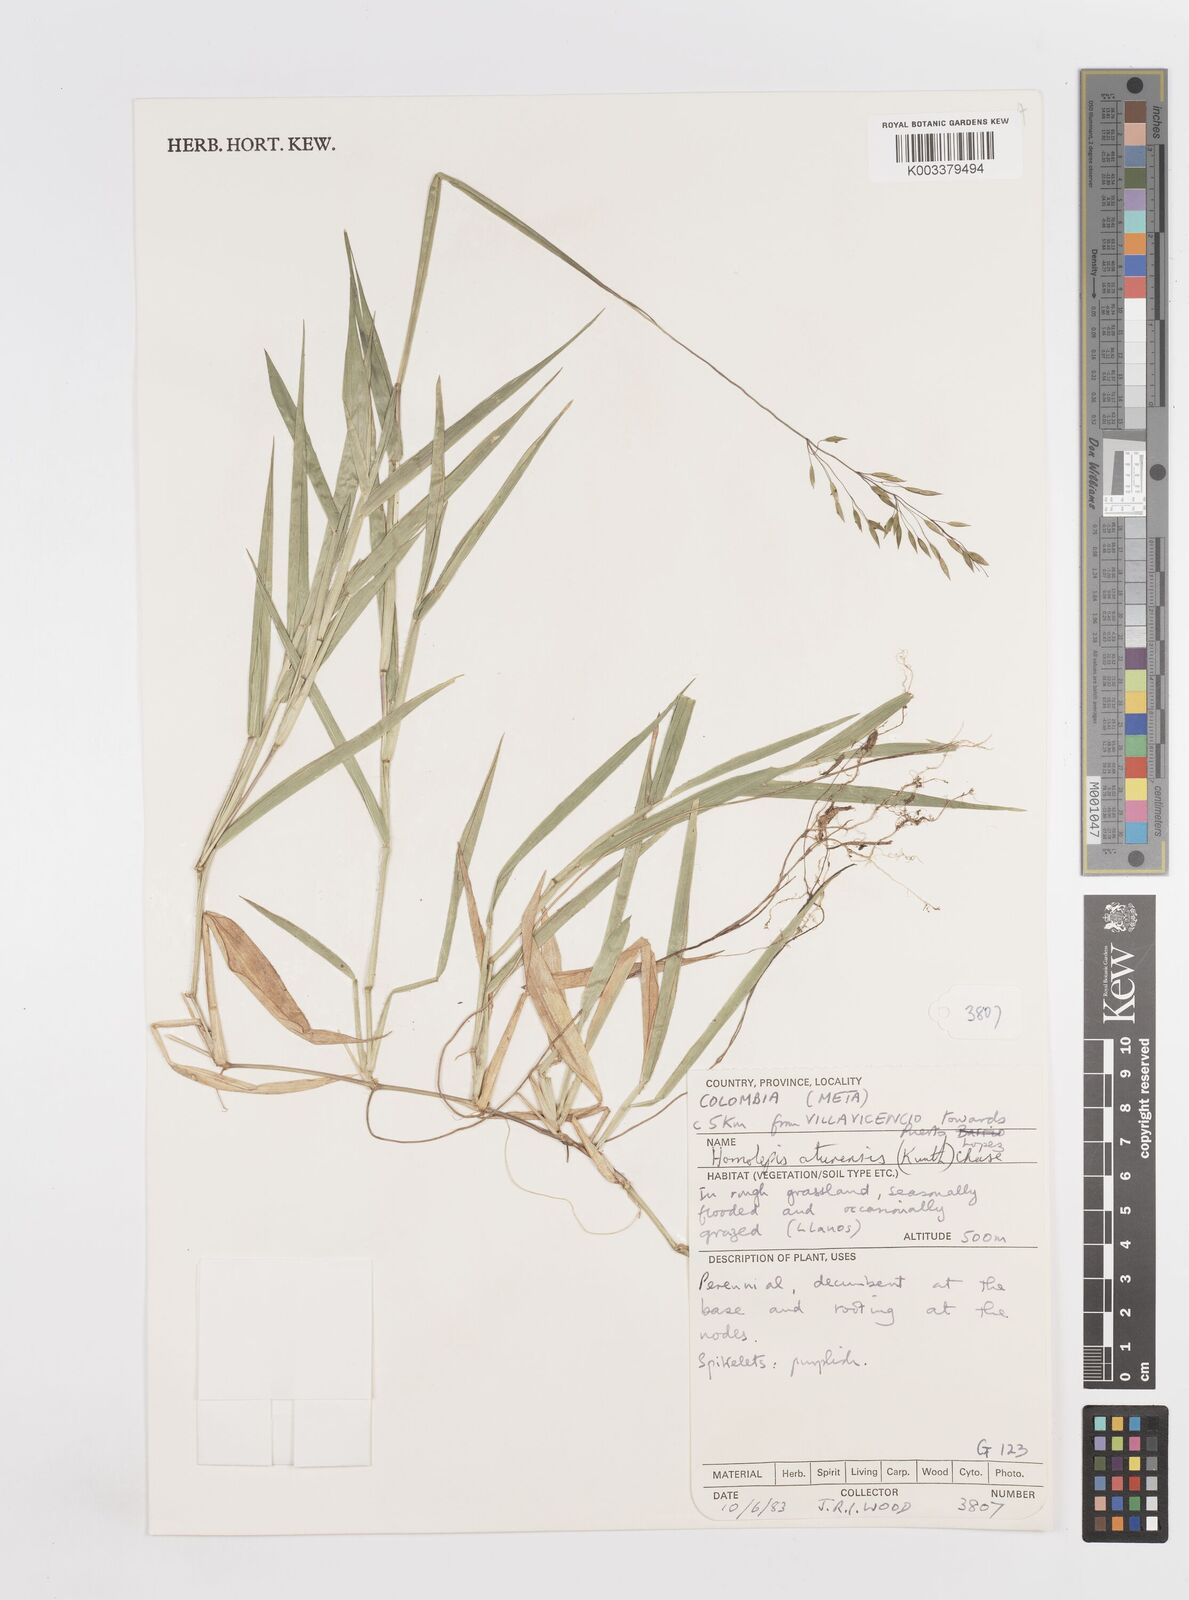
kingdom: Plantae
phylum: Tracheophyta
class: Liliopsida
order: Poales
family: Poaceae
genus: Homolepis
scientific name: Homolepis aturensis
